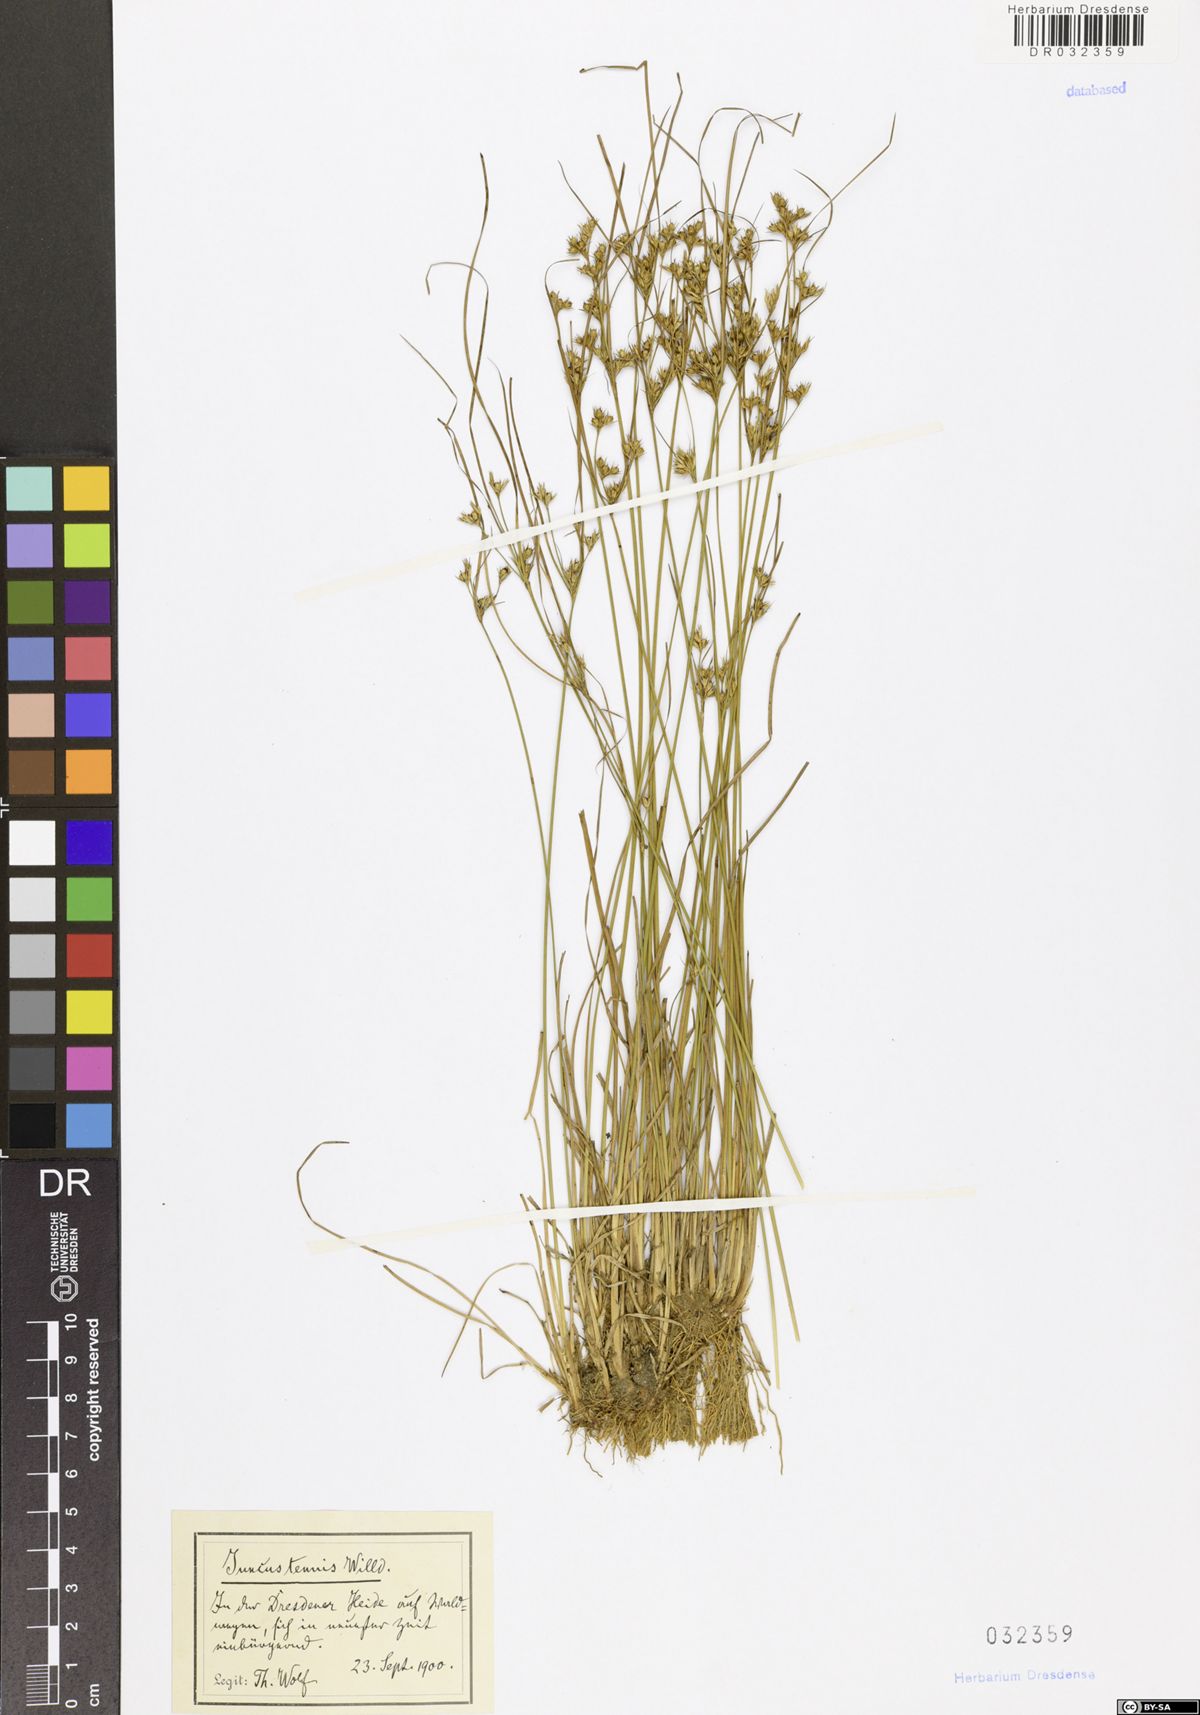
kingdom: Plantae
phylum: Tracheophyta
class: Liliopsida
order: Poales
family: Juncaceae
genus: Juncus
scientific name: Juncus tenuis
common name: Slender rush
